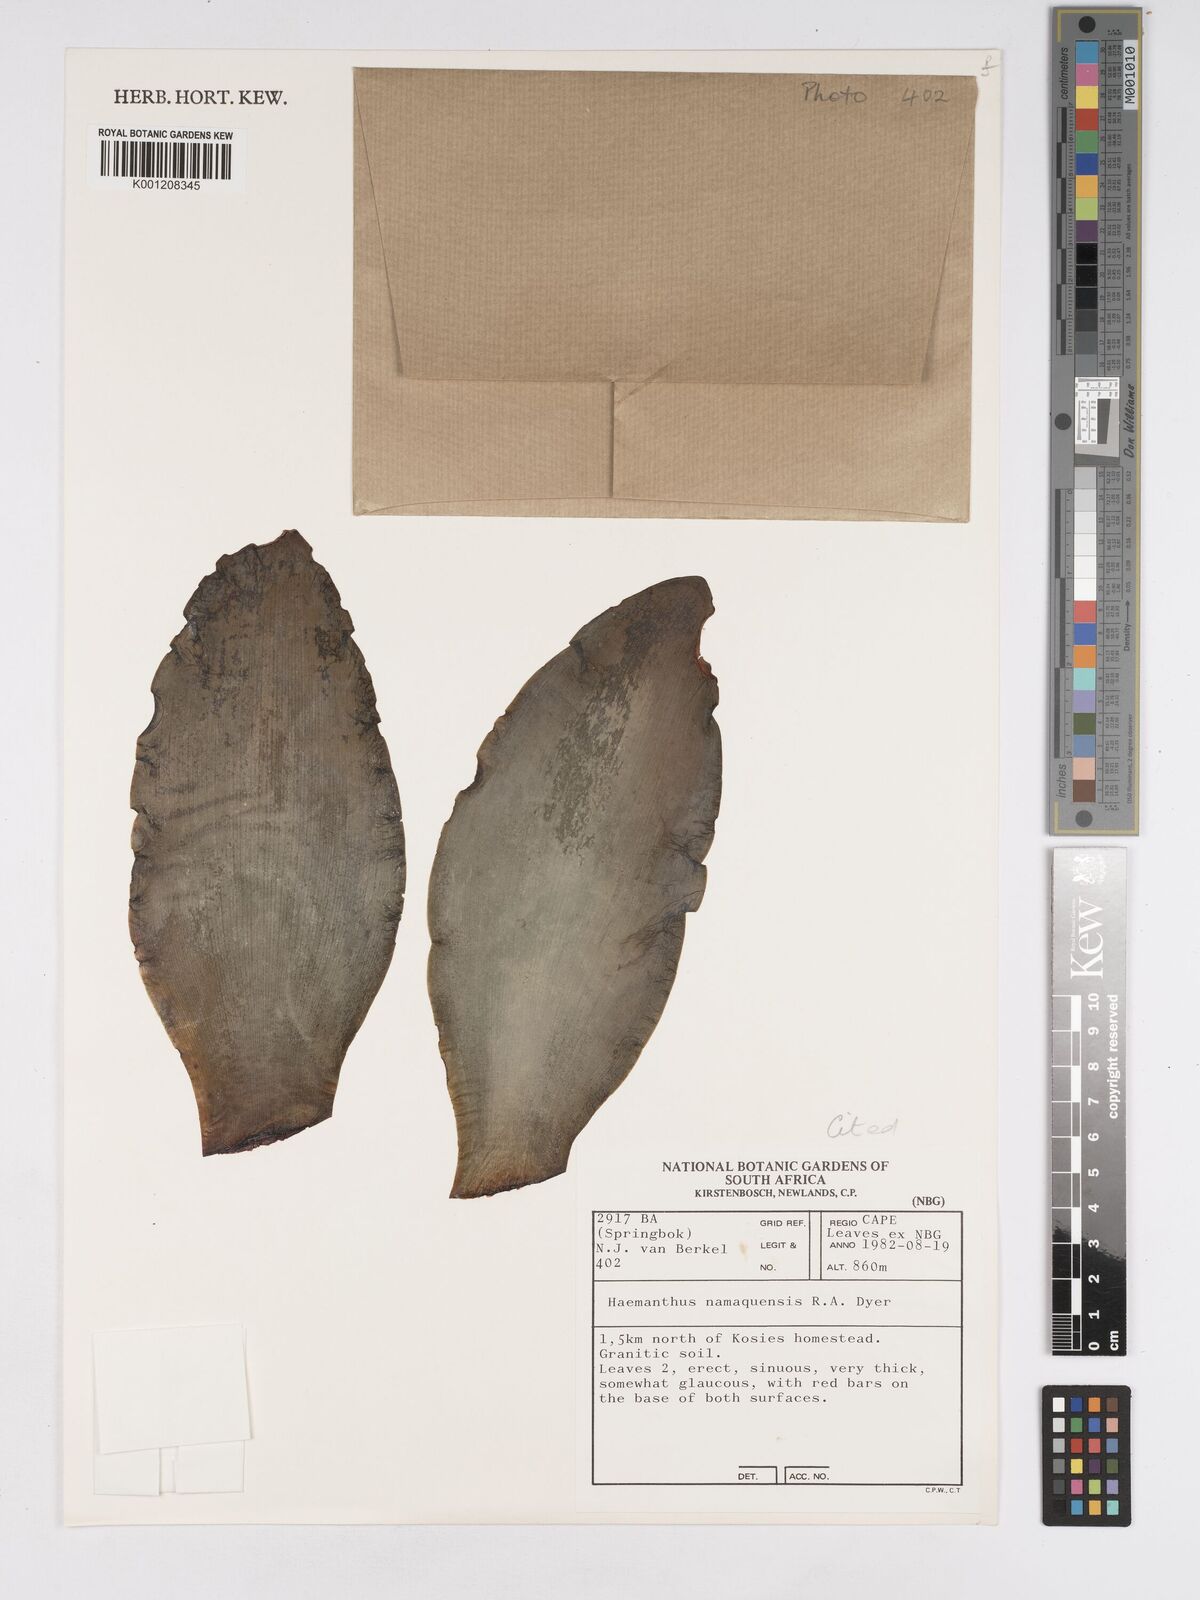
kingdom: Plantae
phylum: Tracheophyta
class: Liliopsida
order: Asparagales
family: Amaryllidaceae
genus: Haemanthus
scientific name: Haemanthus namaquensis
